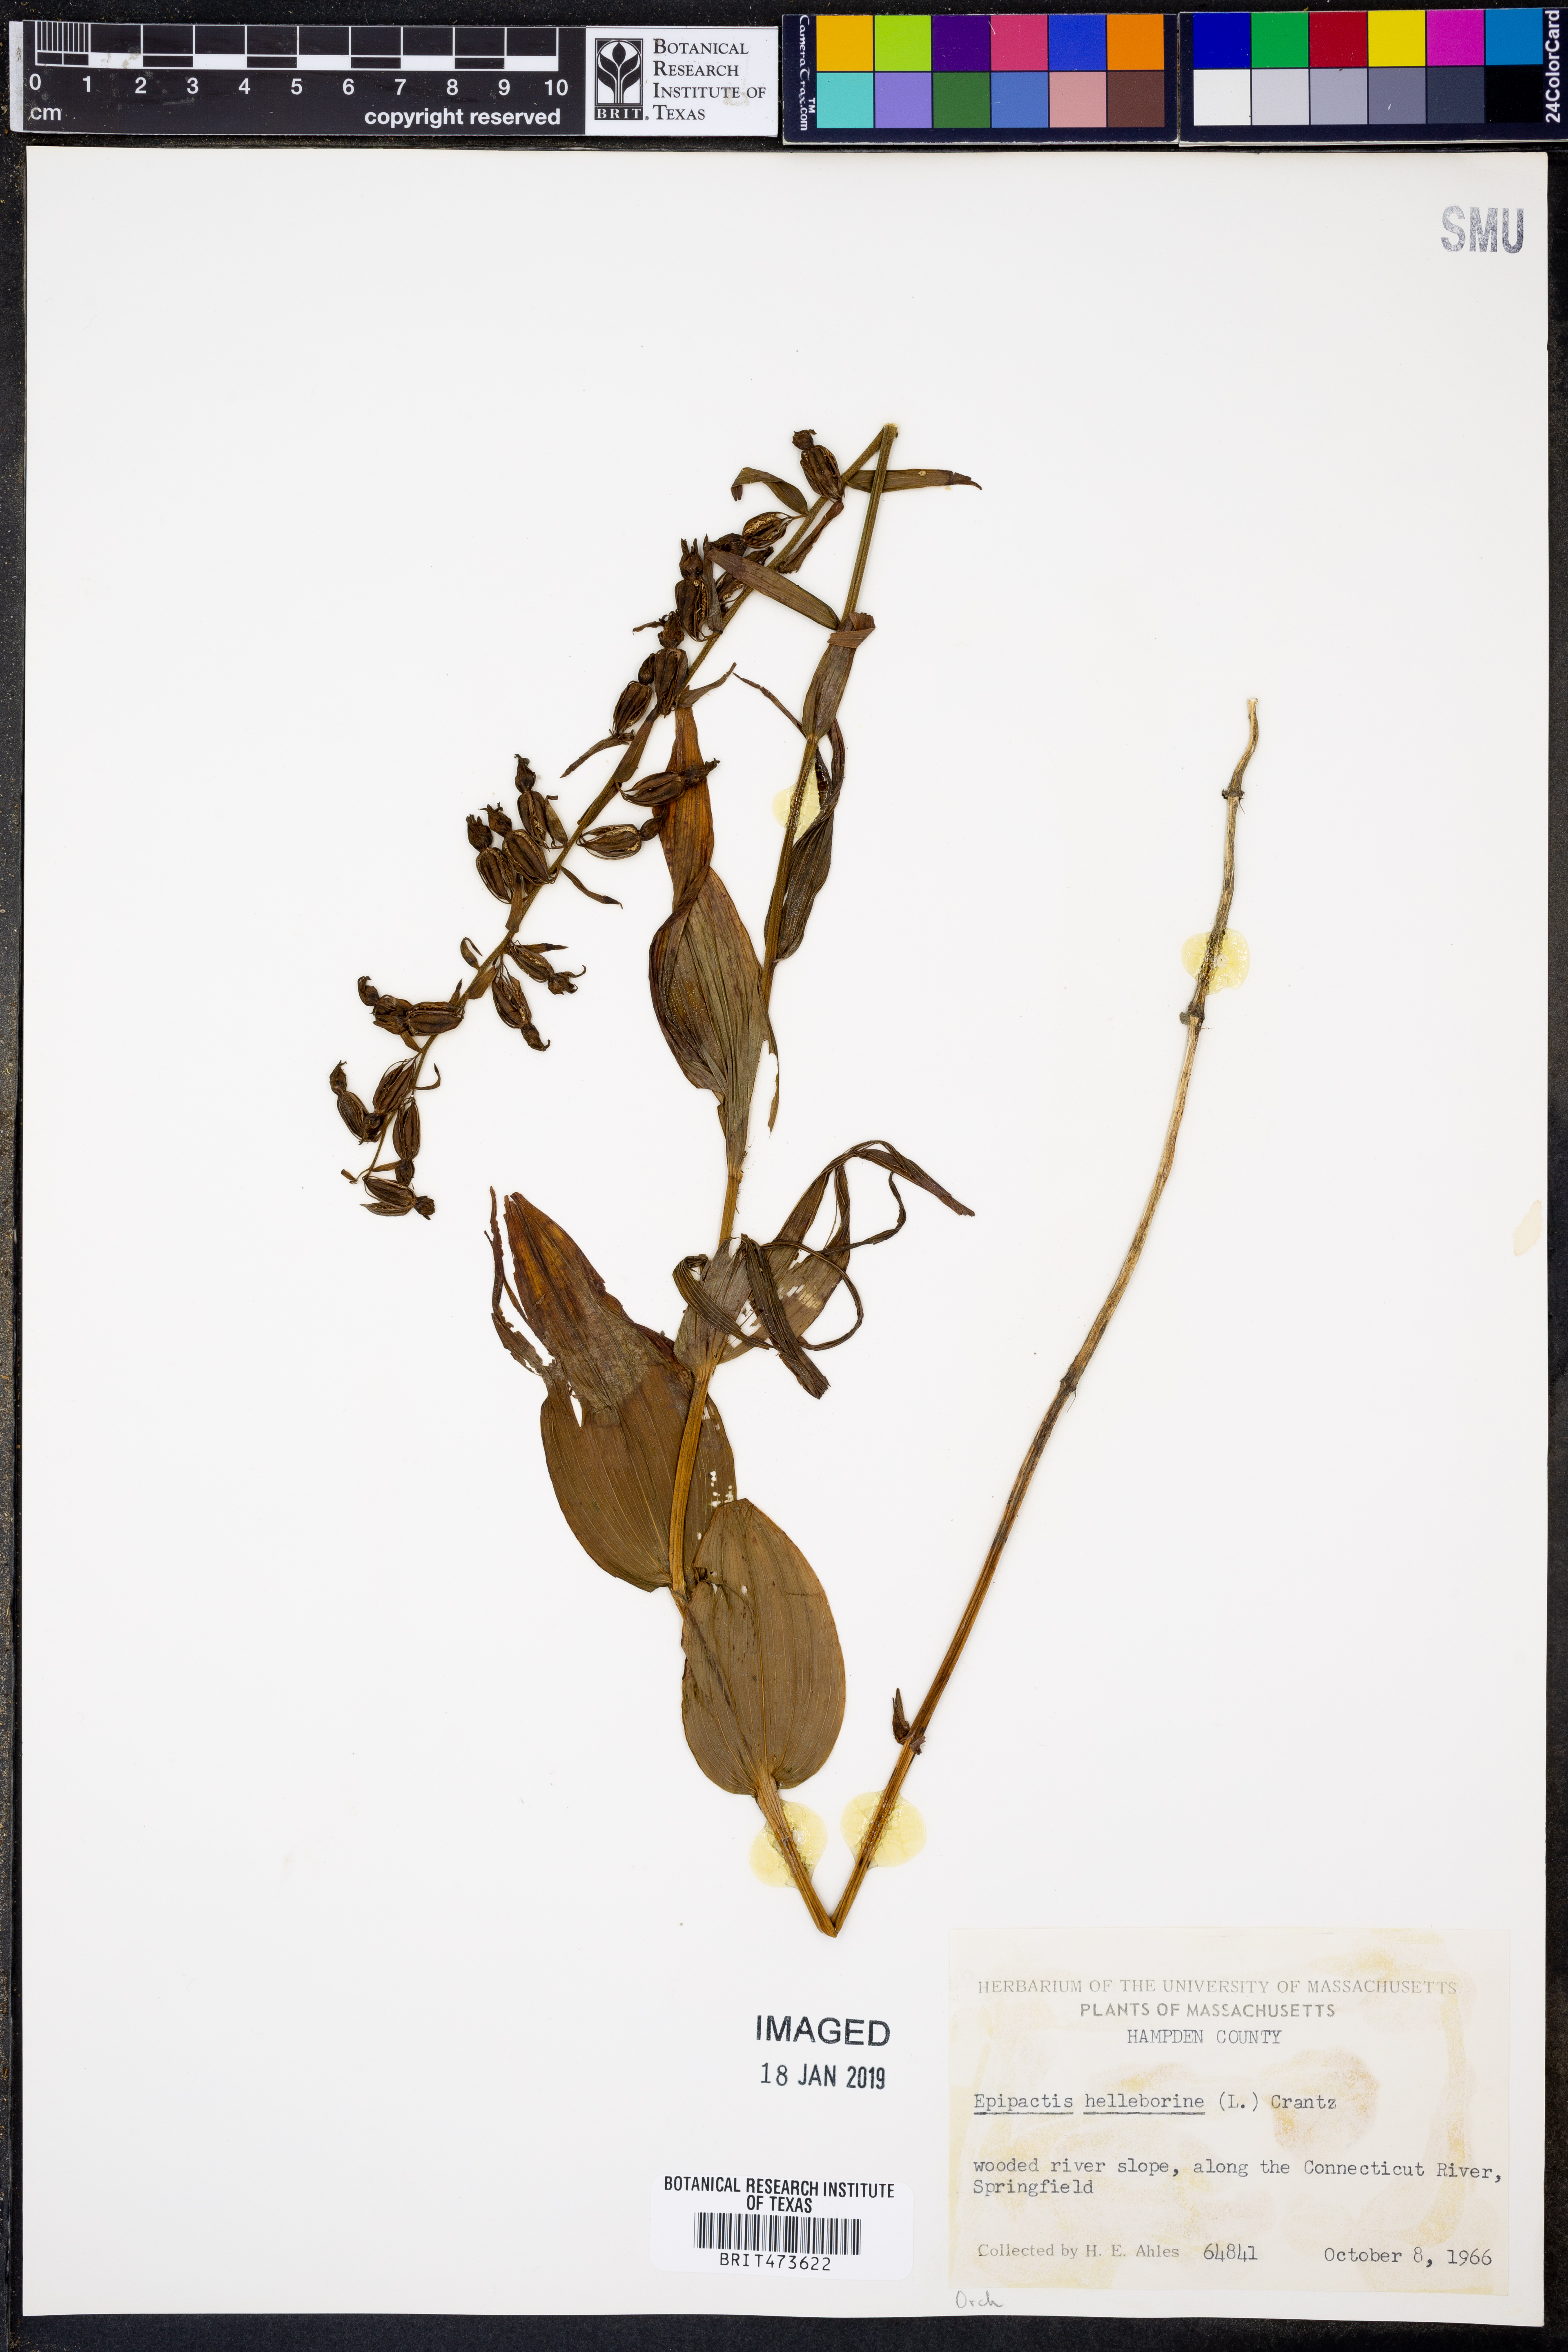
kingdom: Plantae
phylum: Tracheophyta
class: Liliopsida
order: Asparagales
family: Orchidaceae
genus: Epipactis
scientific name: Epipactis helleborine
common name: Broad-leaved helleborine
